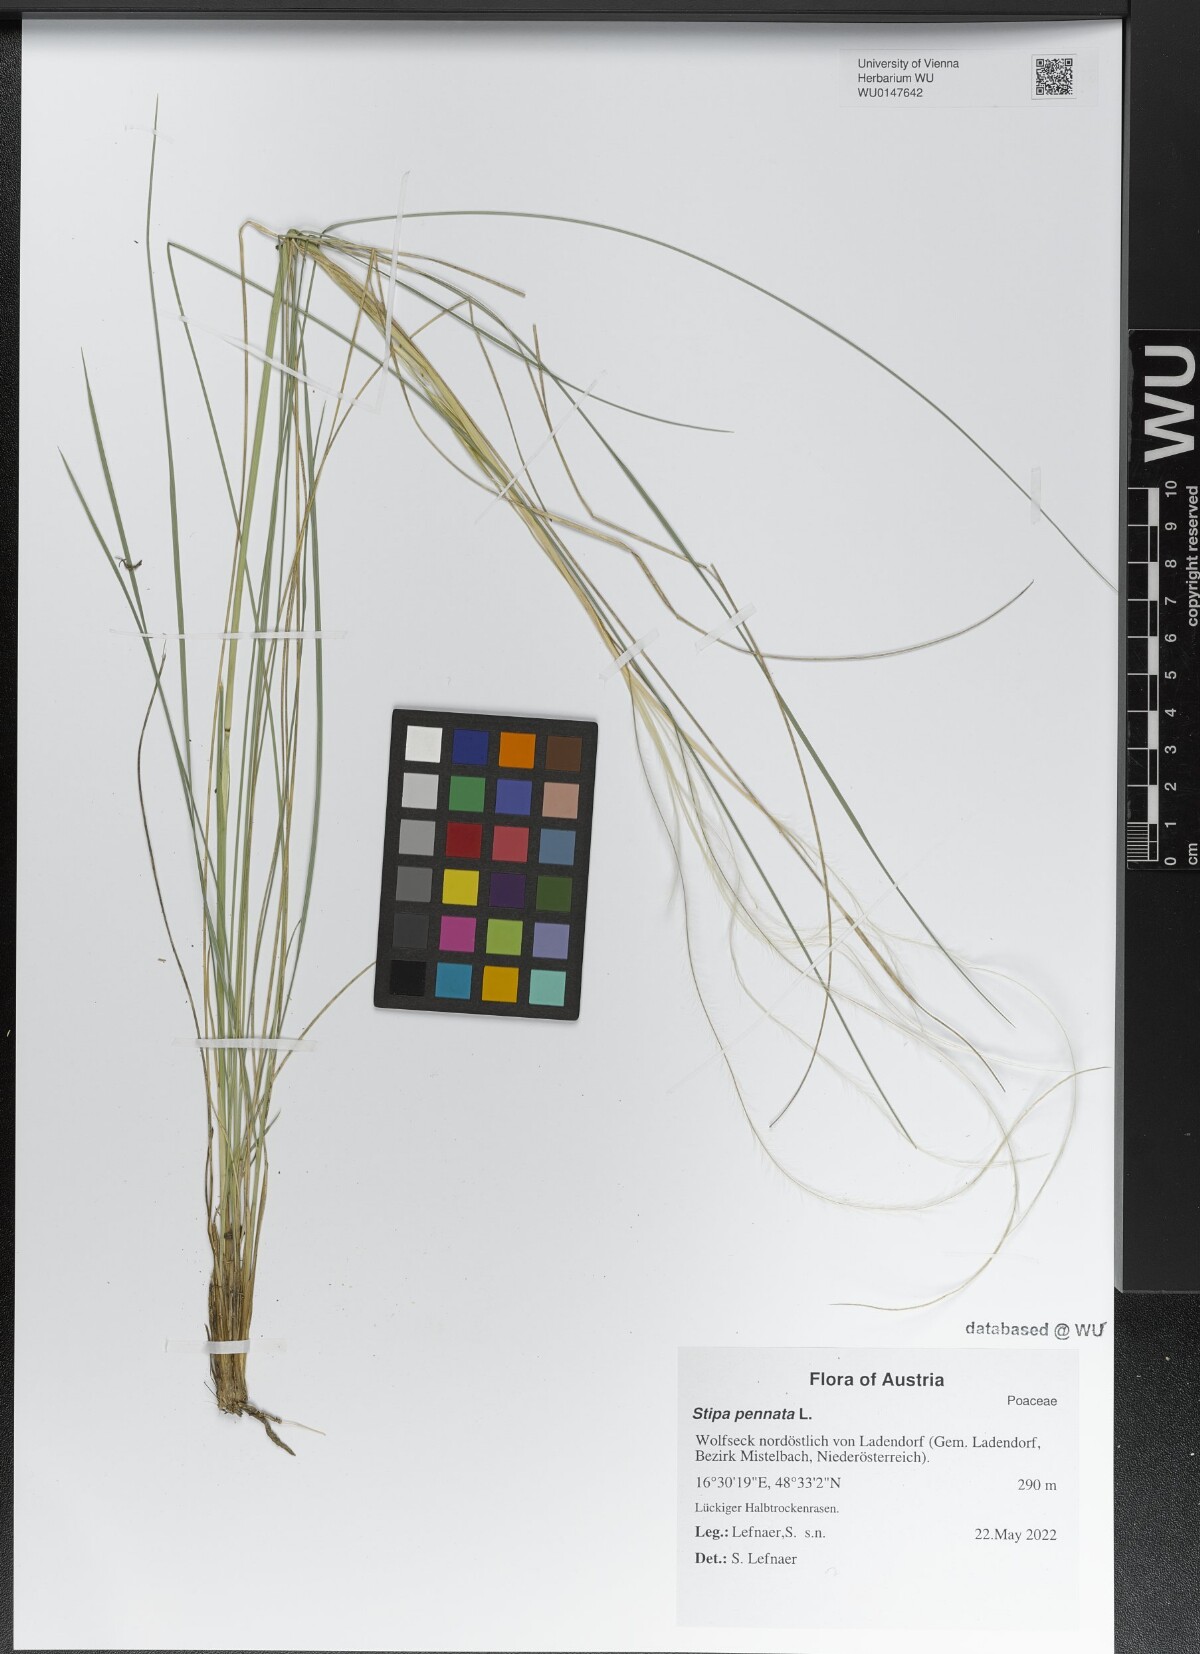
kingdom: Plantae
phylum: Tracheophyta
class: Liliopsida
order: Poales
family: Poaceae
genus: Stipa
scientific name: Stipa pennata
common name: European feather grass
